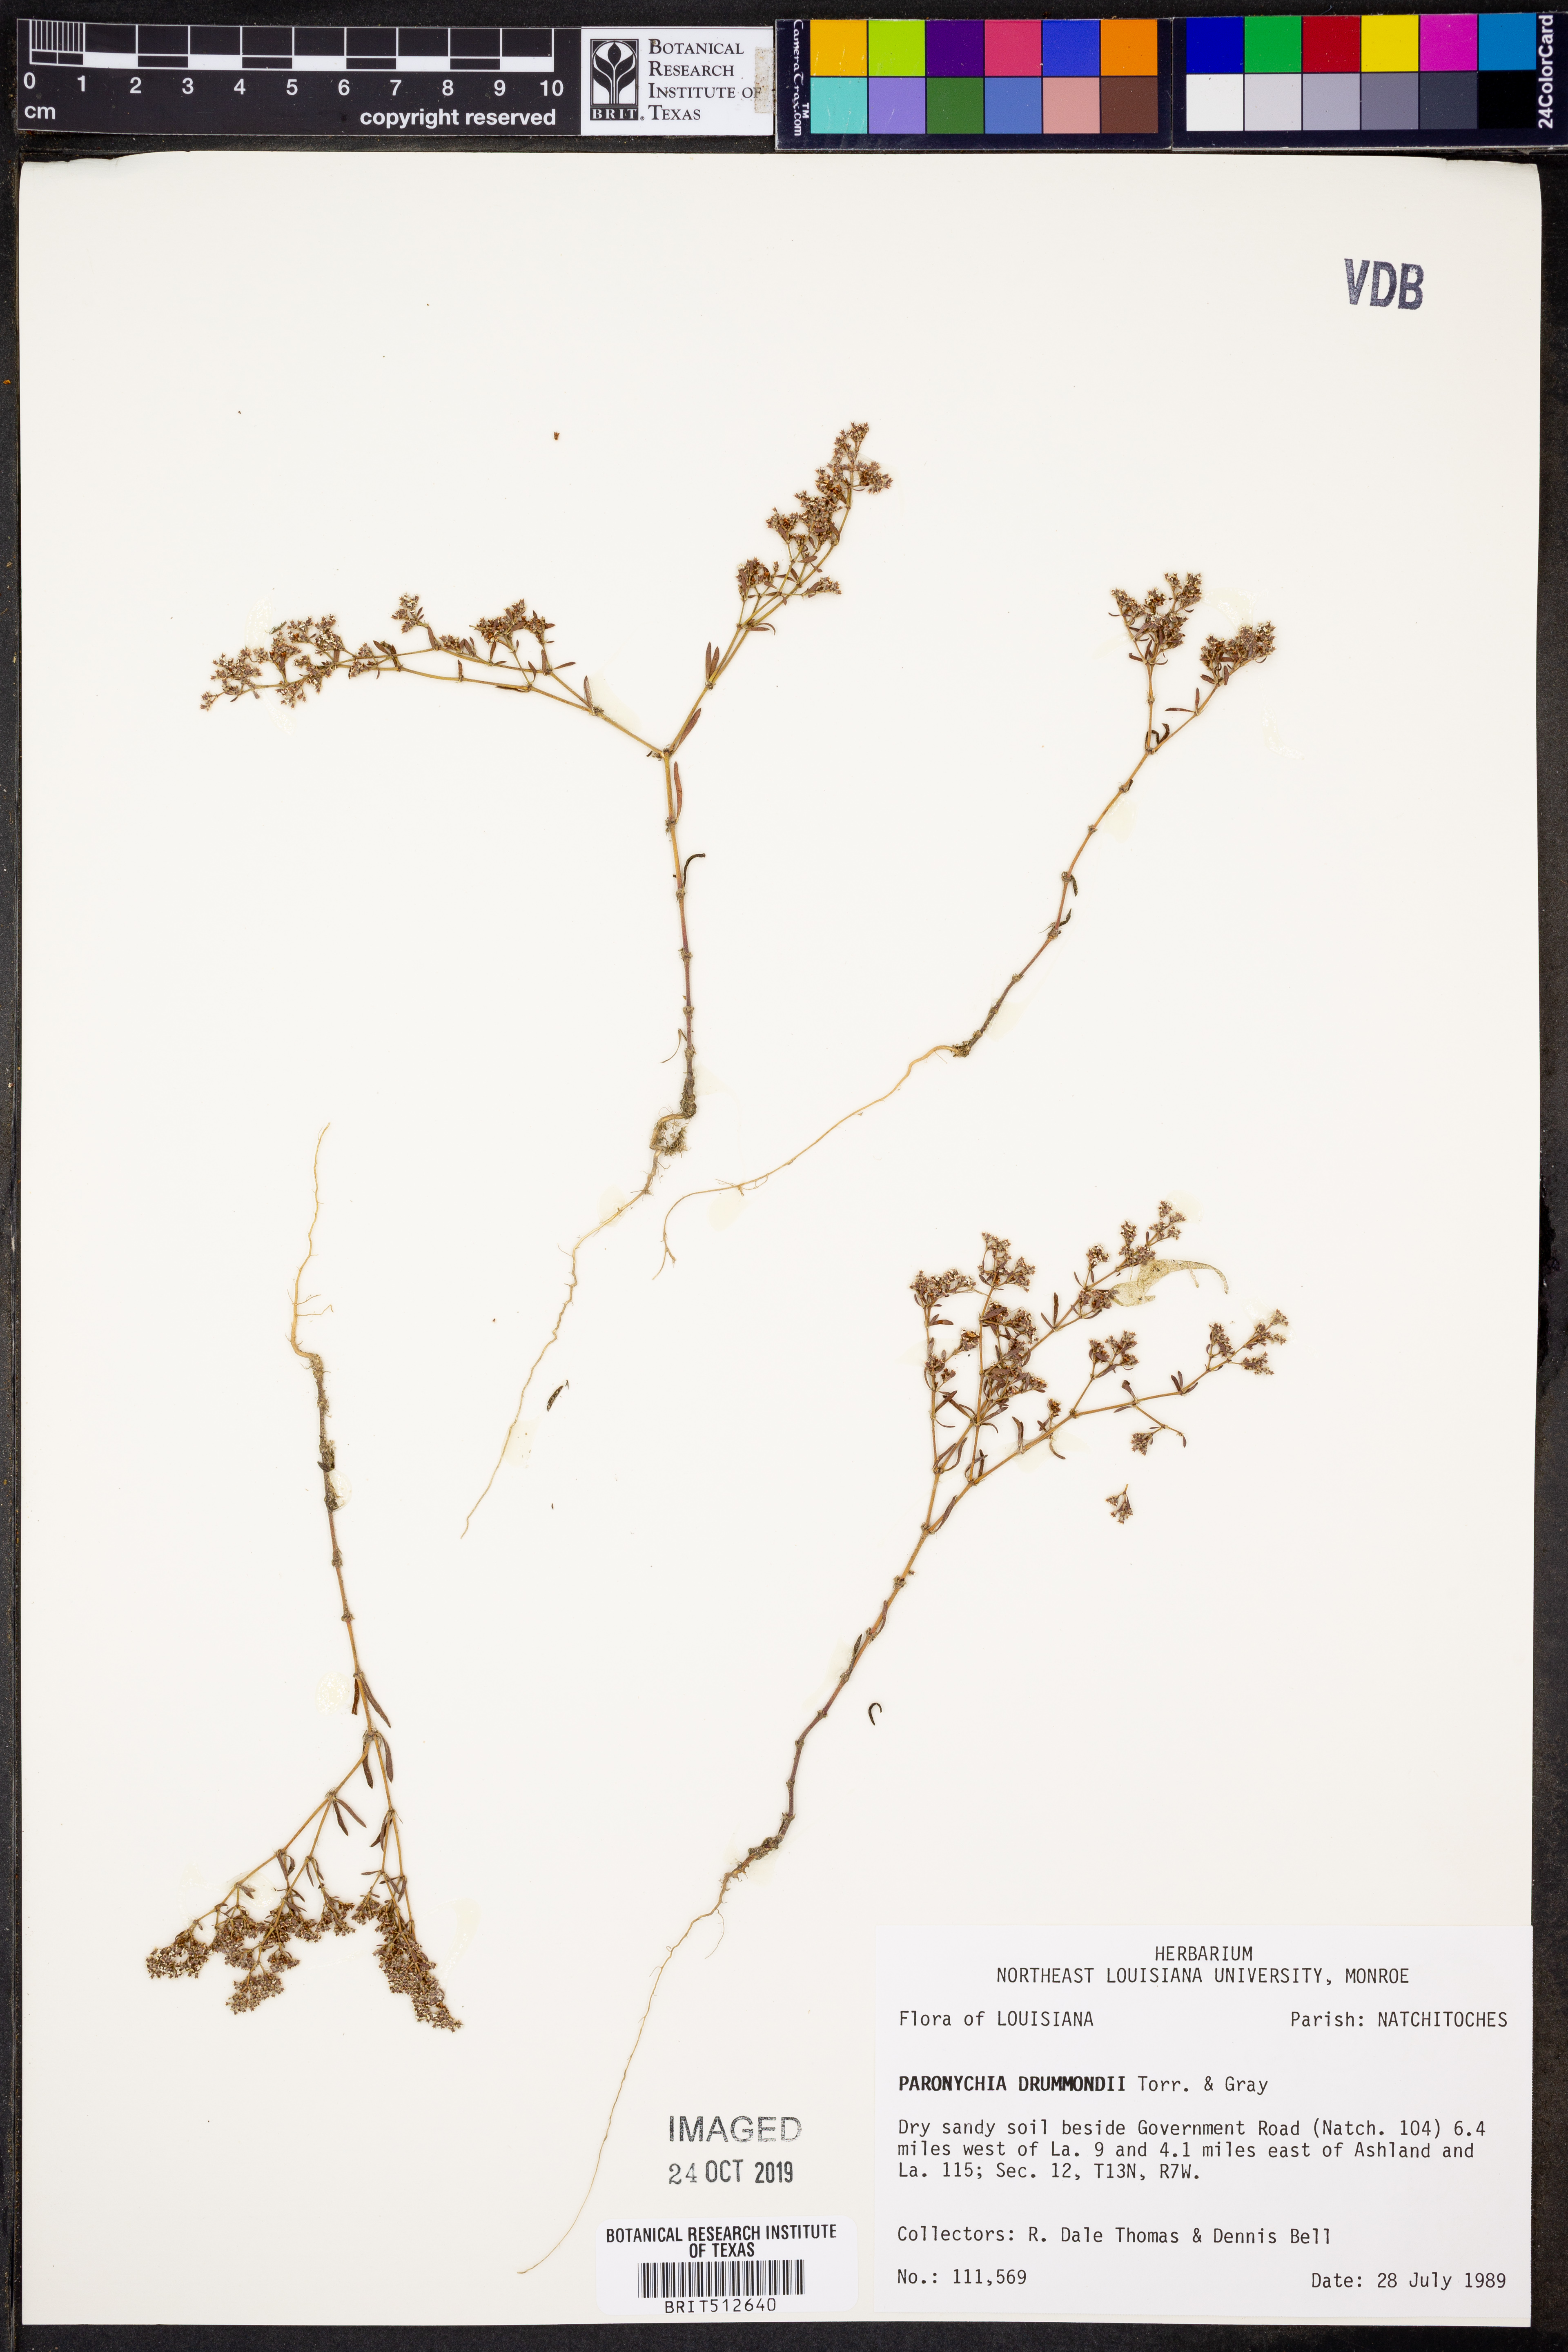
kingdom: Plantae
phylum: Tracheophyta
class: Magnoliopsida
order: Caryophyllales
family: Caryophyllaceae
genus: Paronychia
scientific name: Paronychia drummondii
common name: Drummond's nailwort
